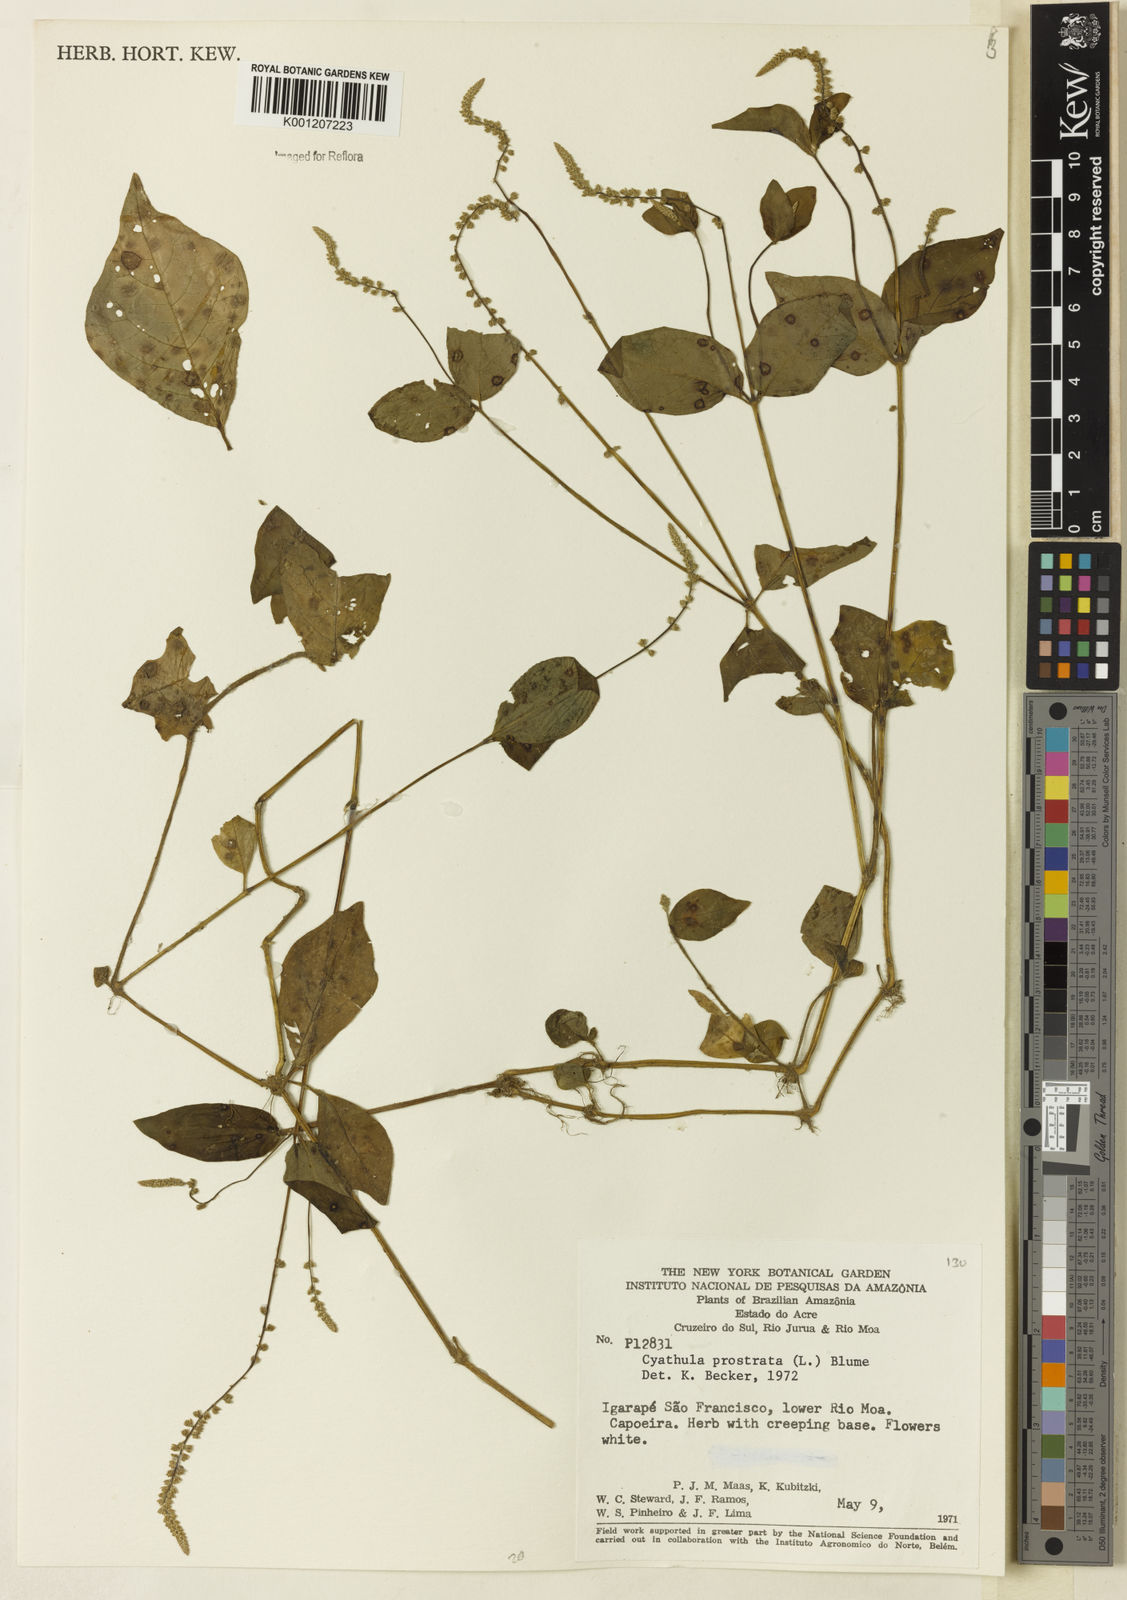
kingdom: Plantae
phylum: Tracheophyta
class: Magnoliopsida
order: Caryophyllales
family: Amaranthaceae
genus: Cyathula
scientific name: Cyathula prostrata
